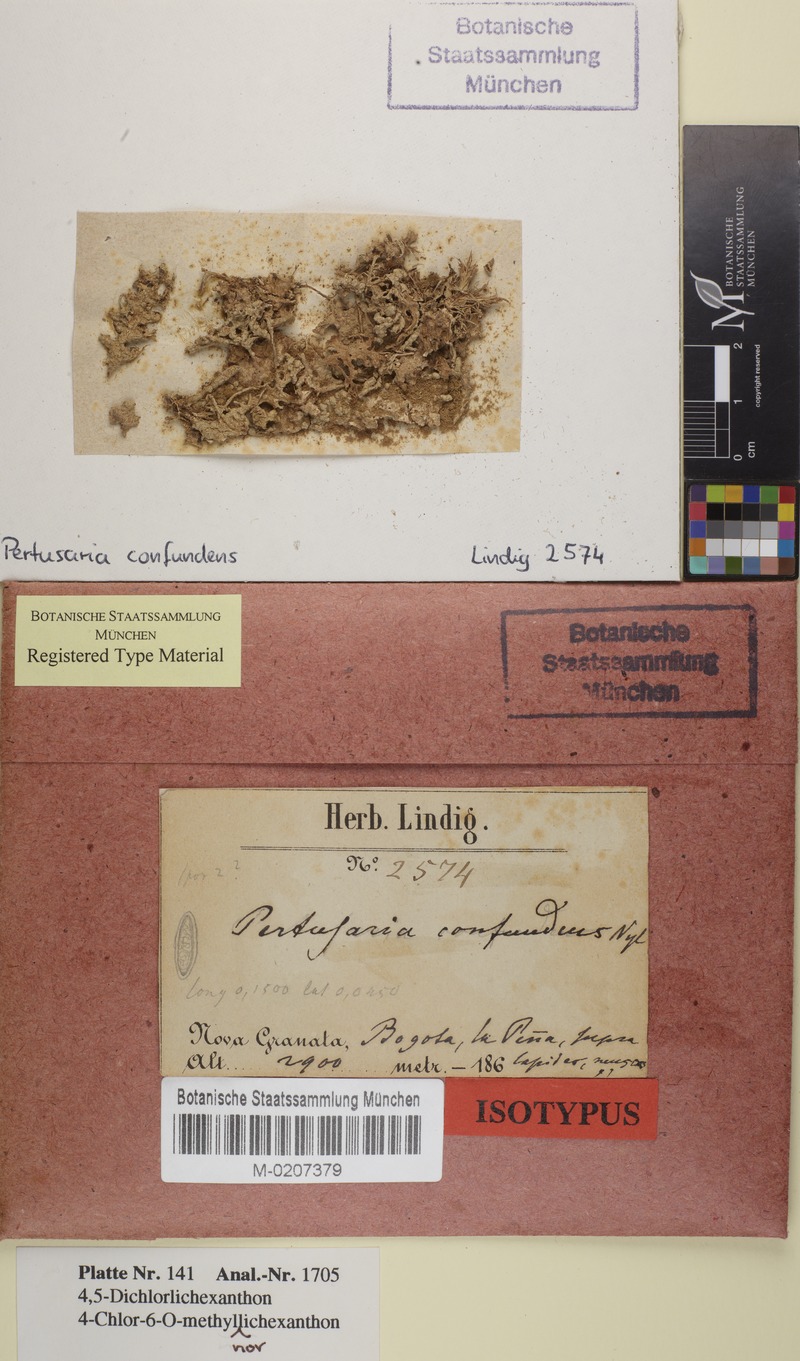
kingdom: Fungi
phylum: Ascomycota
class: Lecanoromycetes
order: Pertusariales
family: Pertusariaceae
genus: Pertusaria
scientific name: Pertusaria confundens
